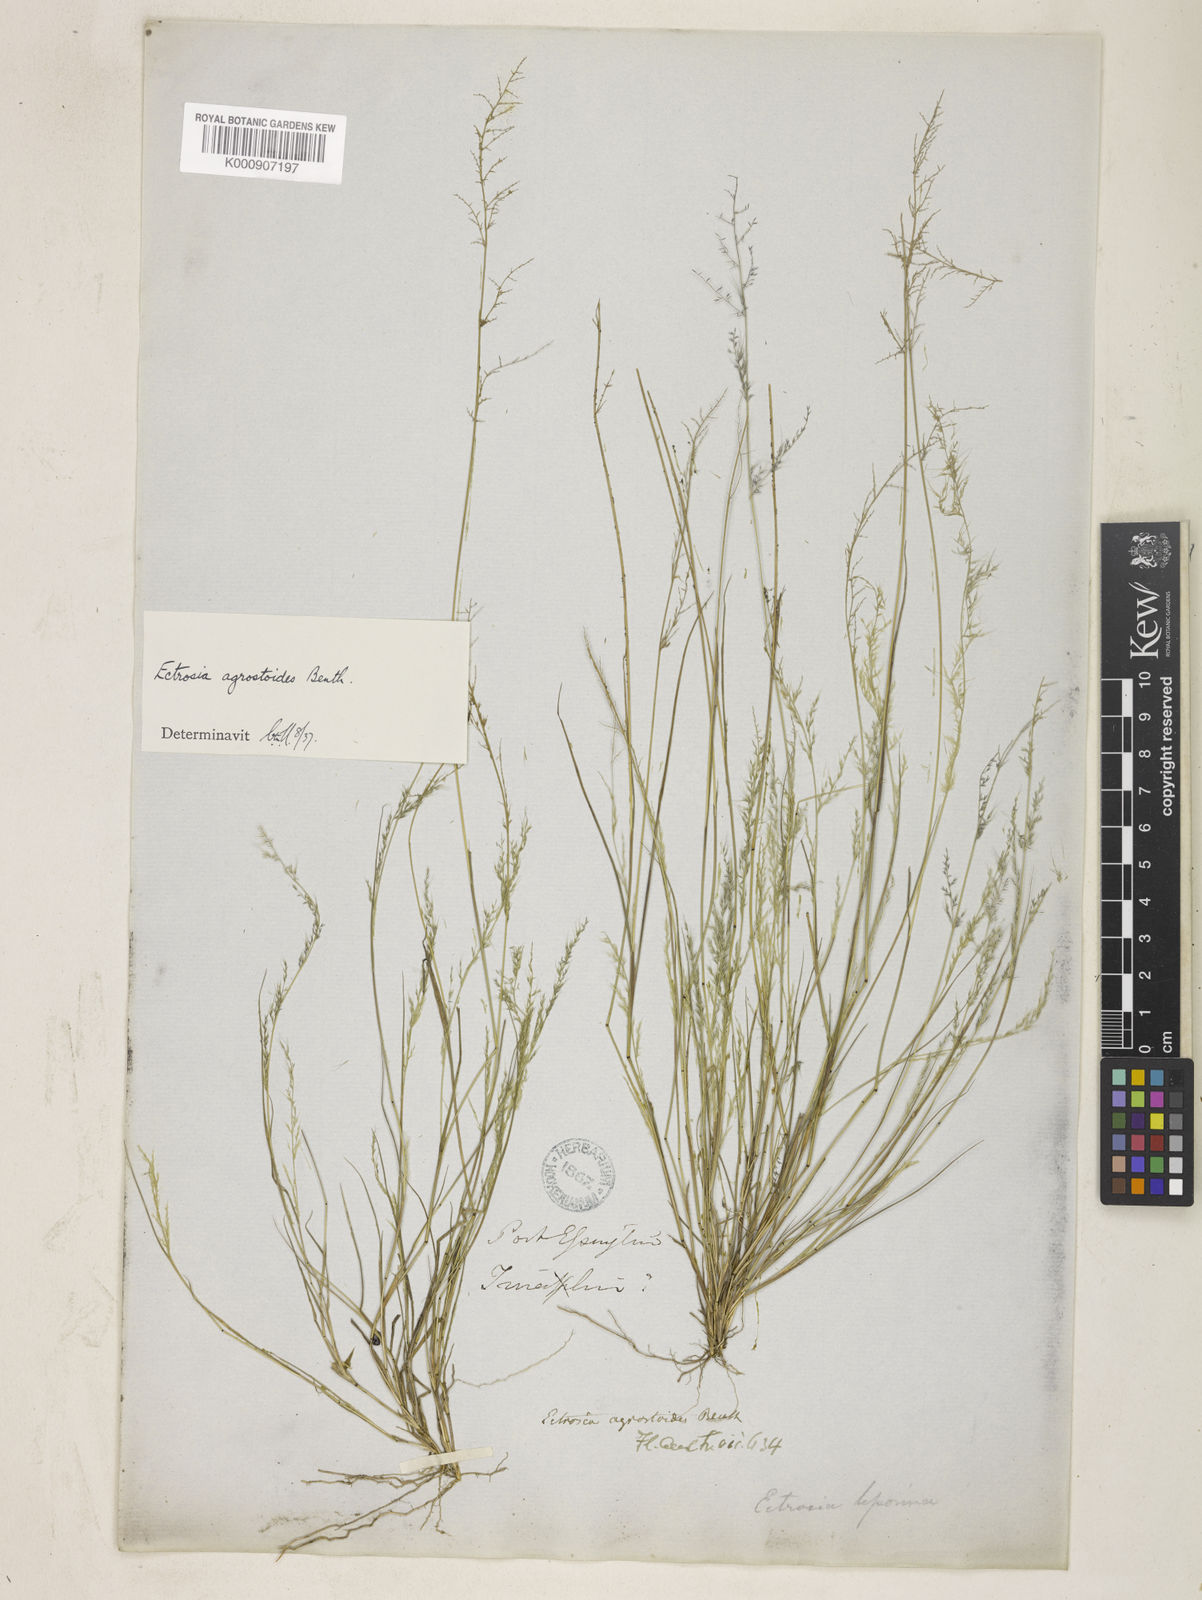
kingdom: Plantae
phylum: Tracheophyta
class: Liliopsida
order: Poales
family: Poaceae
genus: Eragrostis
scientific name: Eragrostis agrostoides
